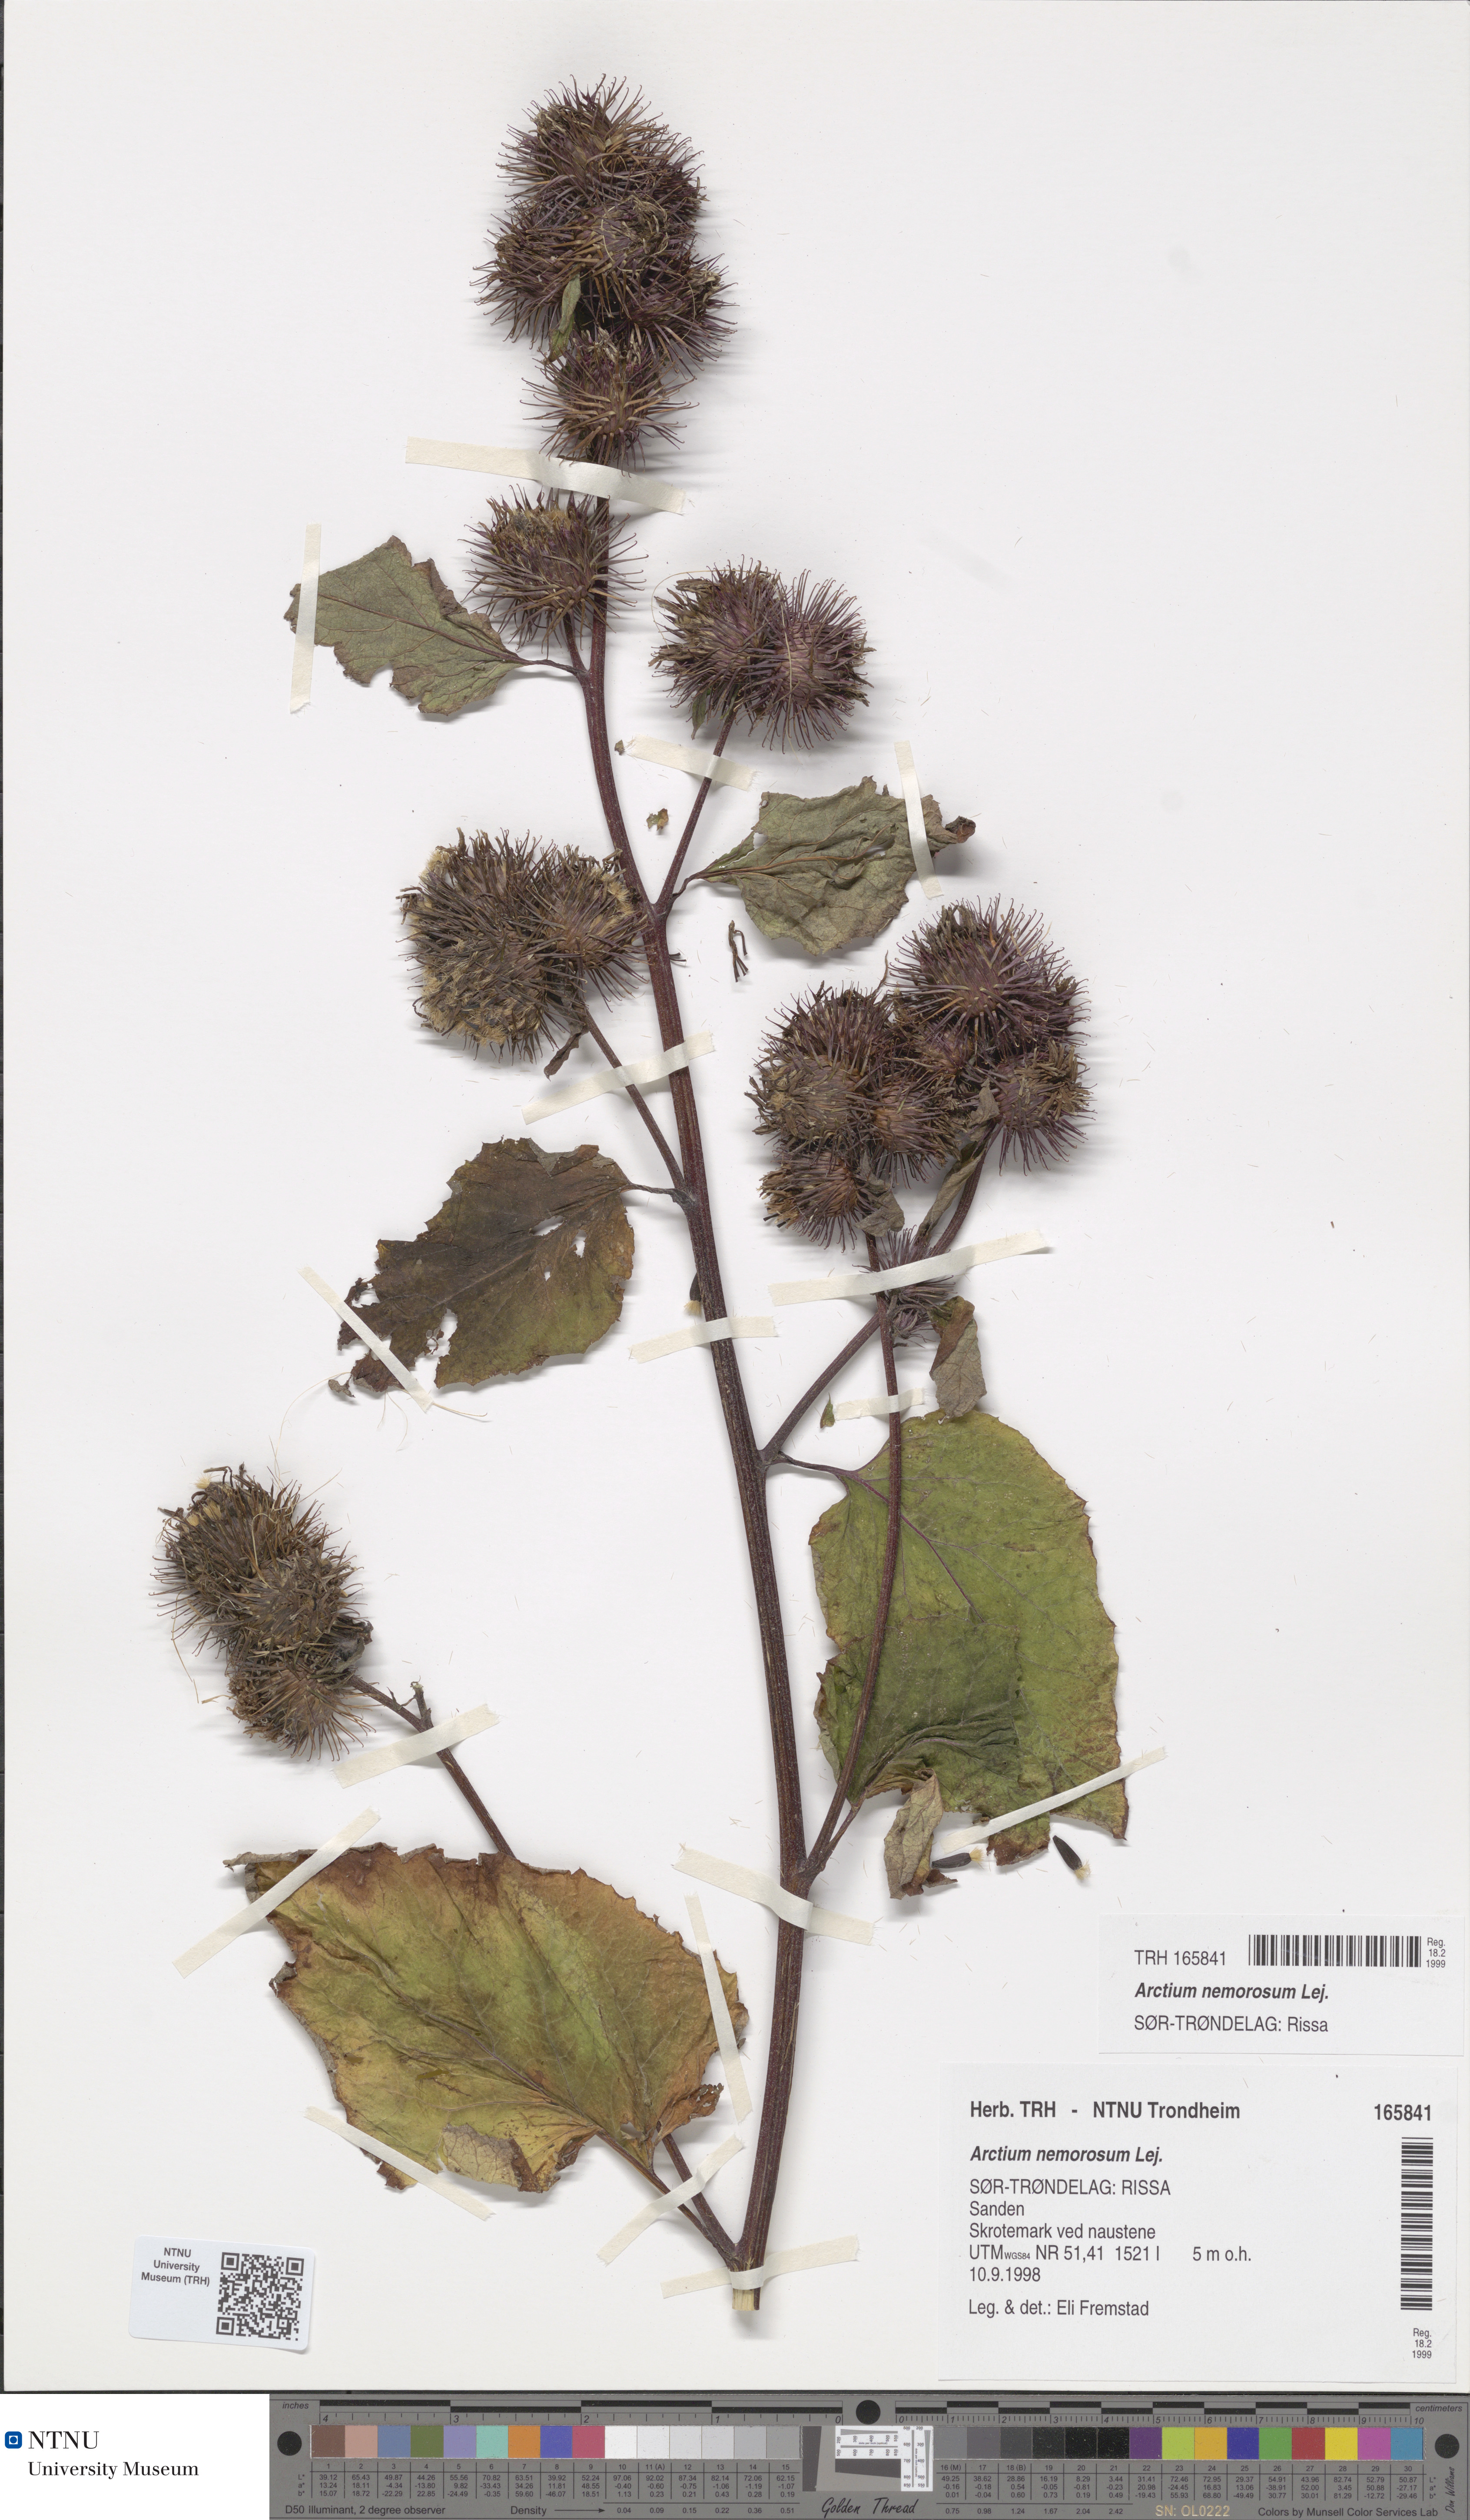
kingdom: Plantae
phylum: Tracheophyta
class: Magnoliopsida
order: Asterales
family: Asteraceae
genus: Arctium
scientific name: Arctium nemorosum
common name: Wood burdock
